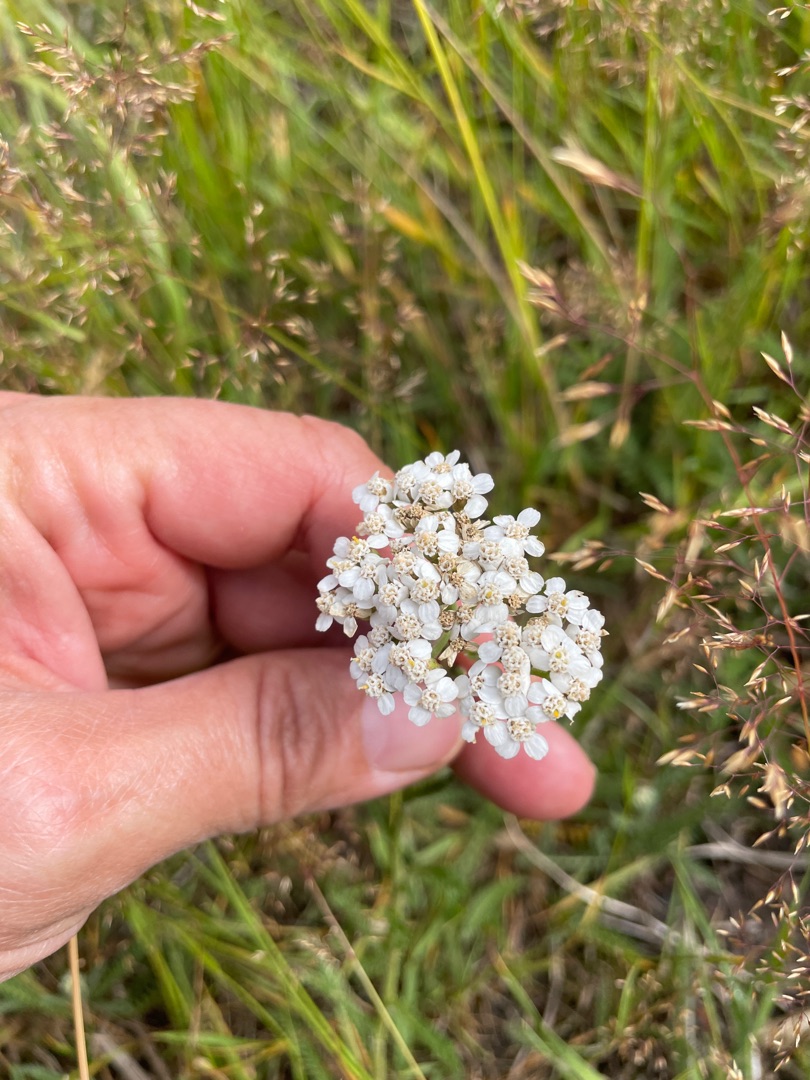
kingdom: Plantae
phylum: Tracheophyta
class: Magnoliopsida
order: Asterales
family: Asteraceae
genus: Achillea
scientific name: Achillea millefolium
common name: Almindelig røllike
